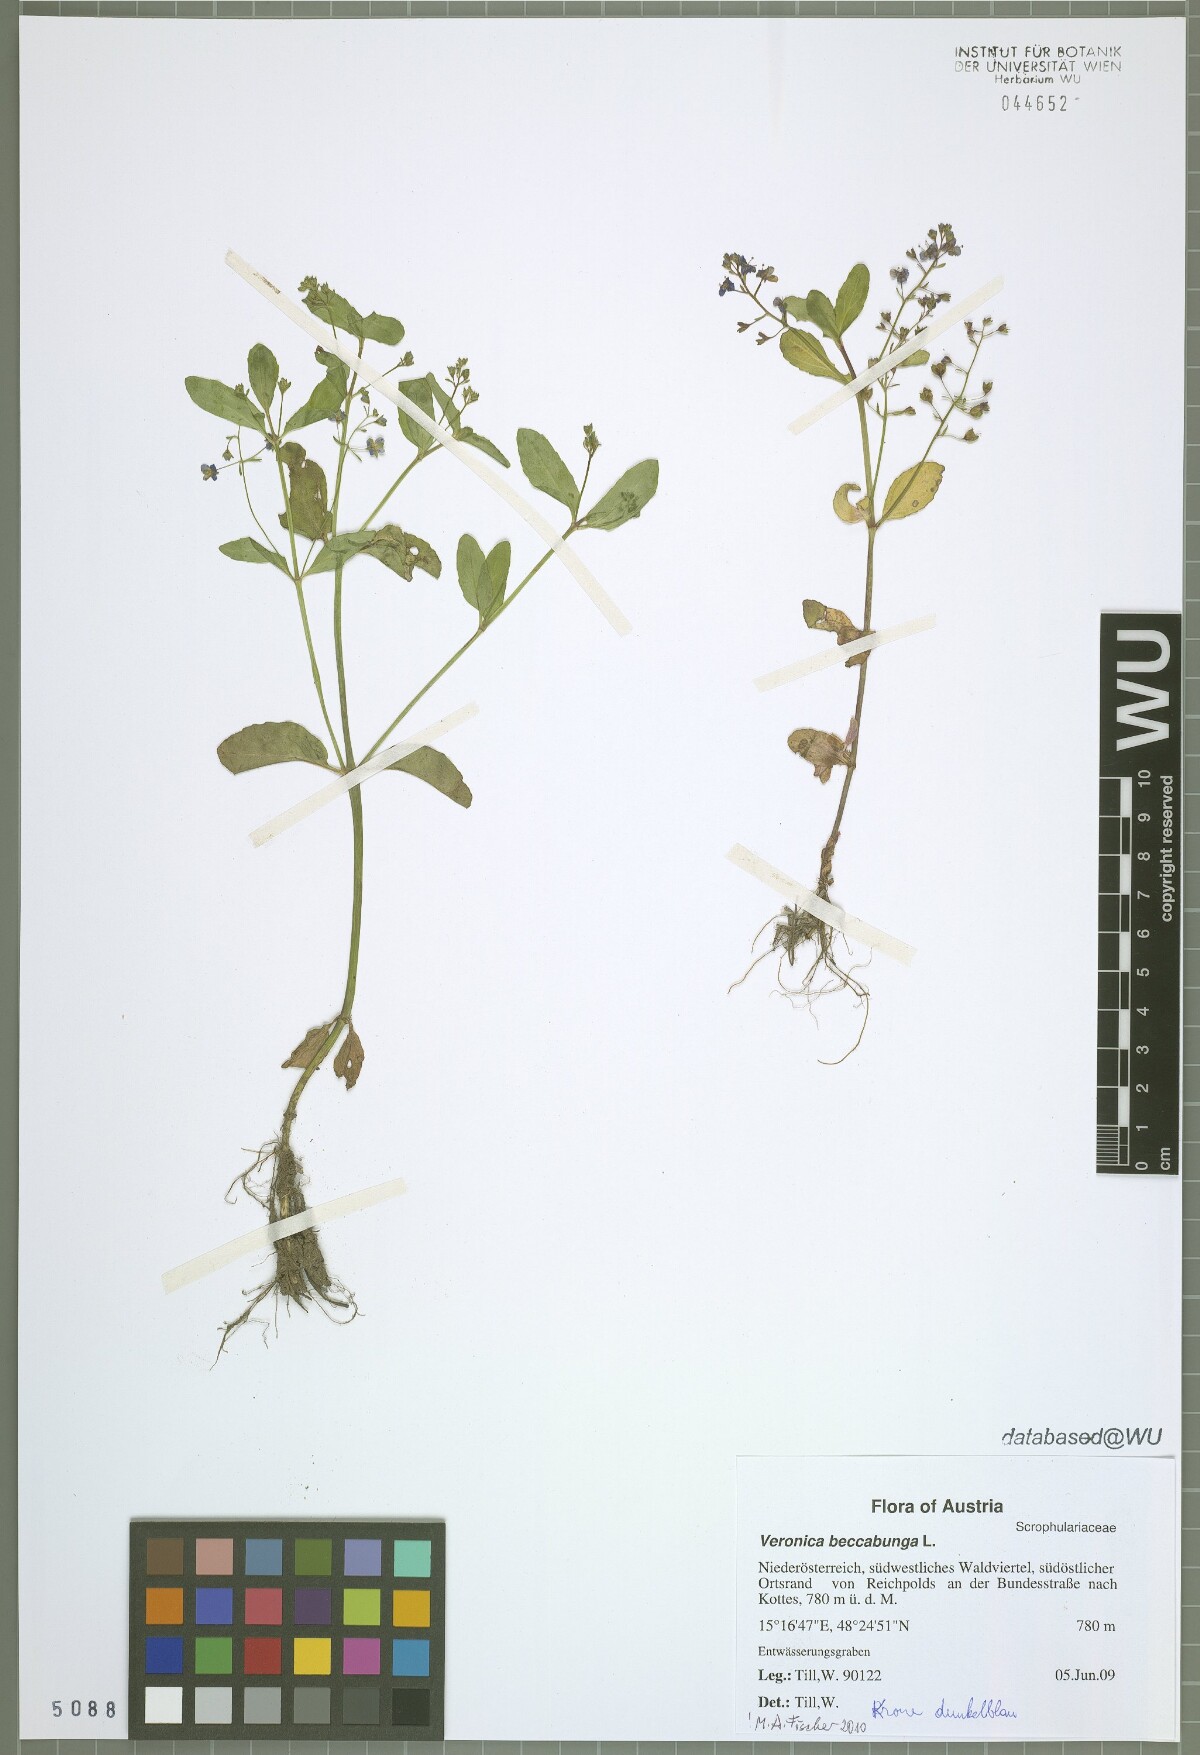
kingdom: Plantae
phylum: Tracheophyta
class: Magnoliopsida
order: Lamiales
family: Plantaginaceae
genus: Veronica
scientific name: Veronica beccabunga
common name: Brooklime
